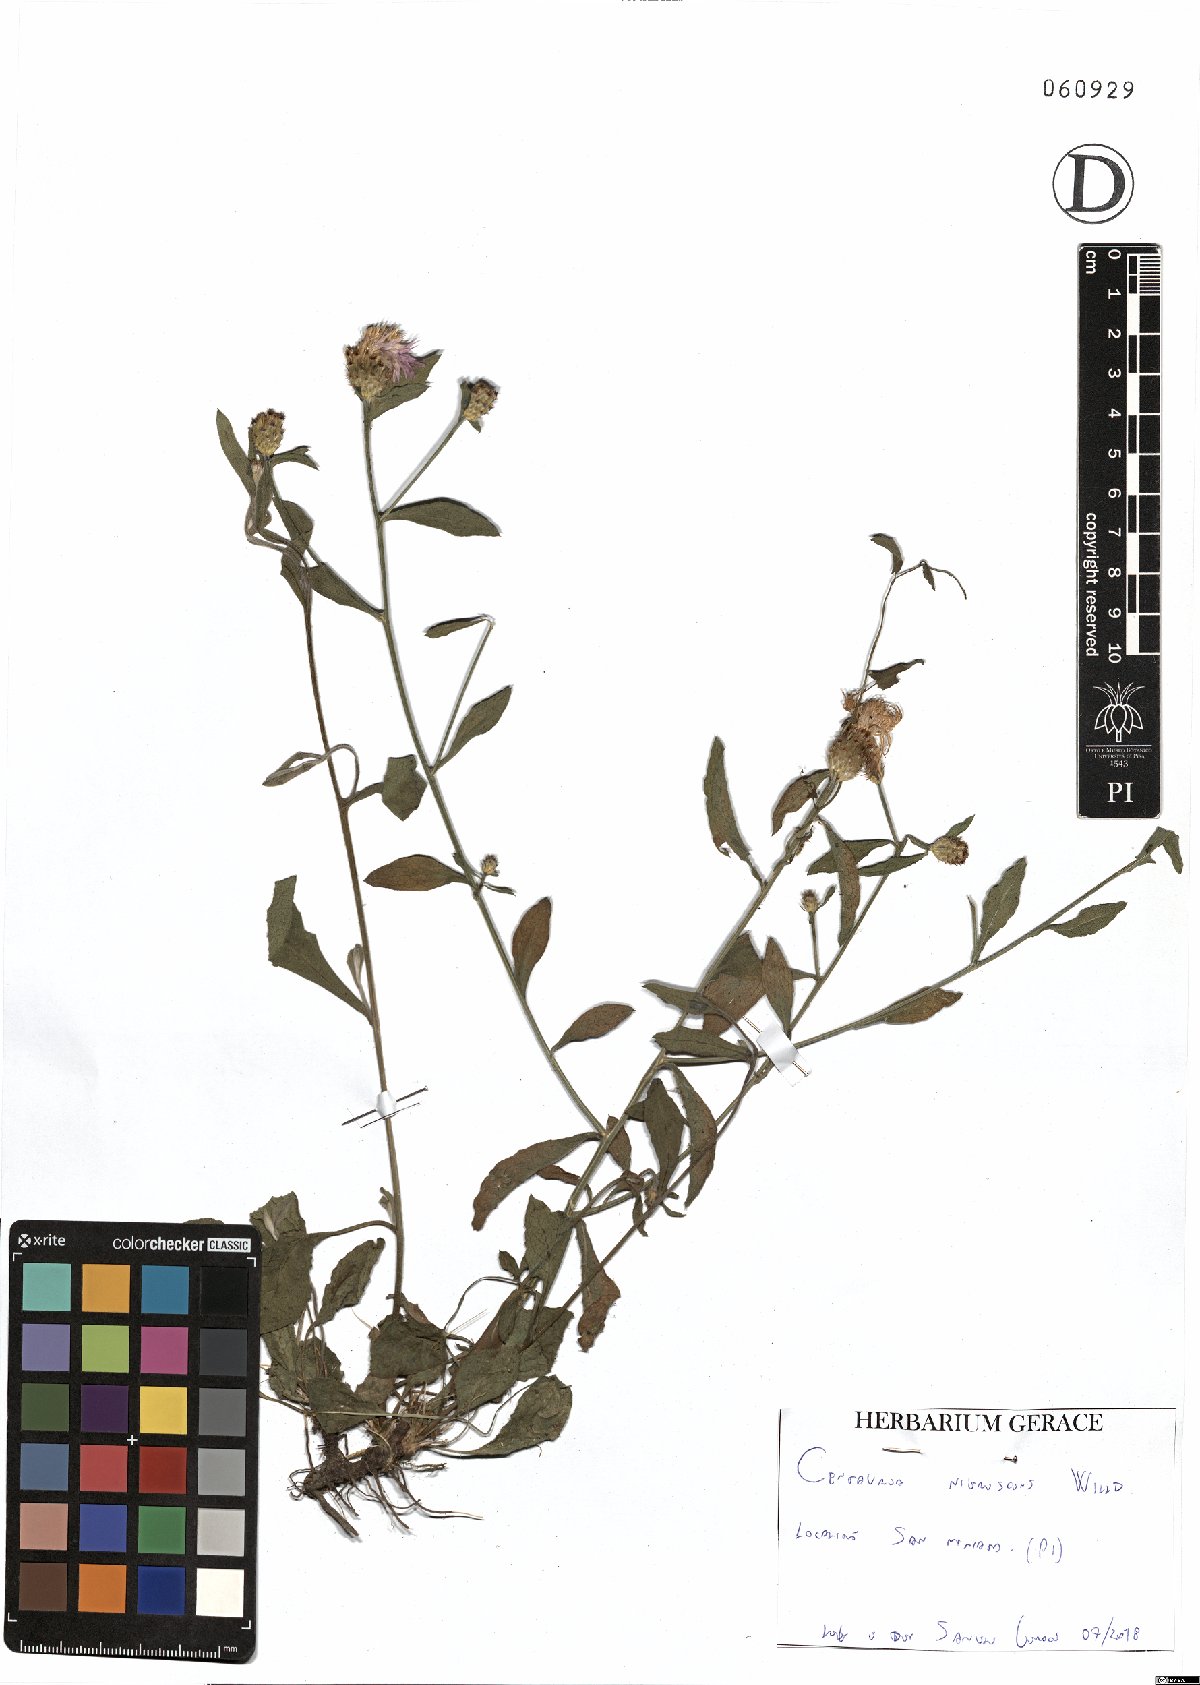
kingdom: Plantae
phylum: Tracheophyta
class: Magnoliopsida
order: Asterales
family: Asteraceae
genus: Centaurea
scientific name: Centaurea nigrescens
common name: Tyrol knapweed
